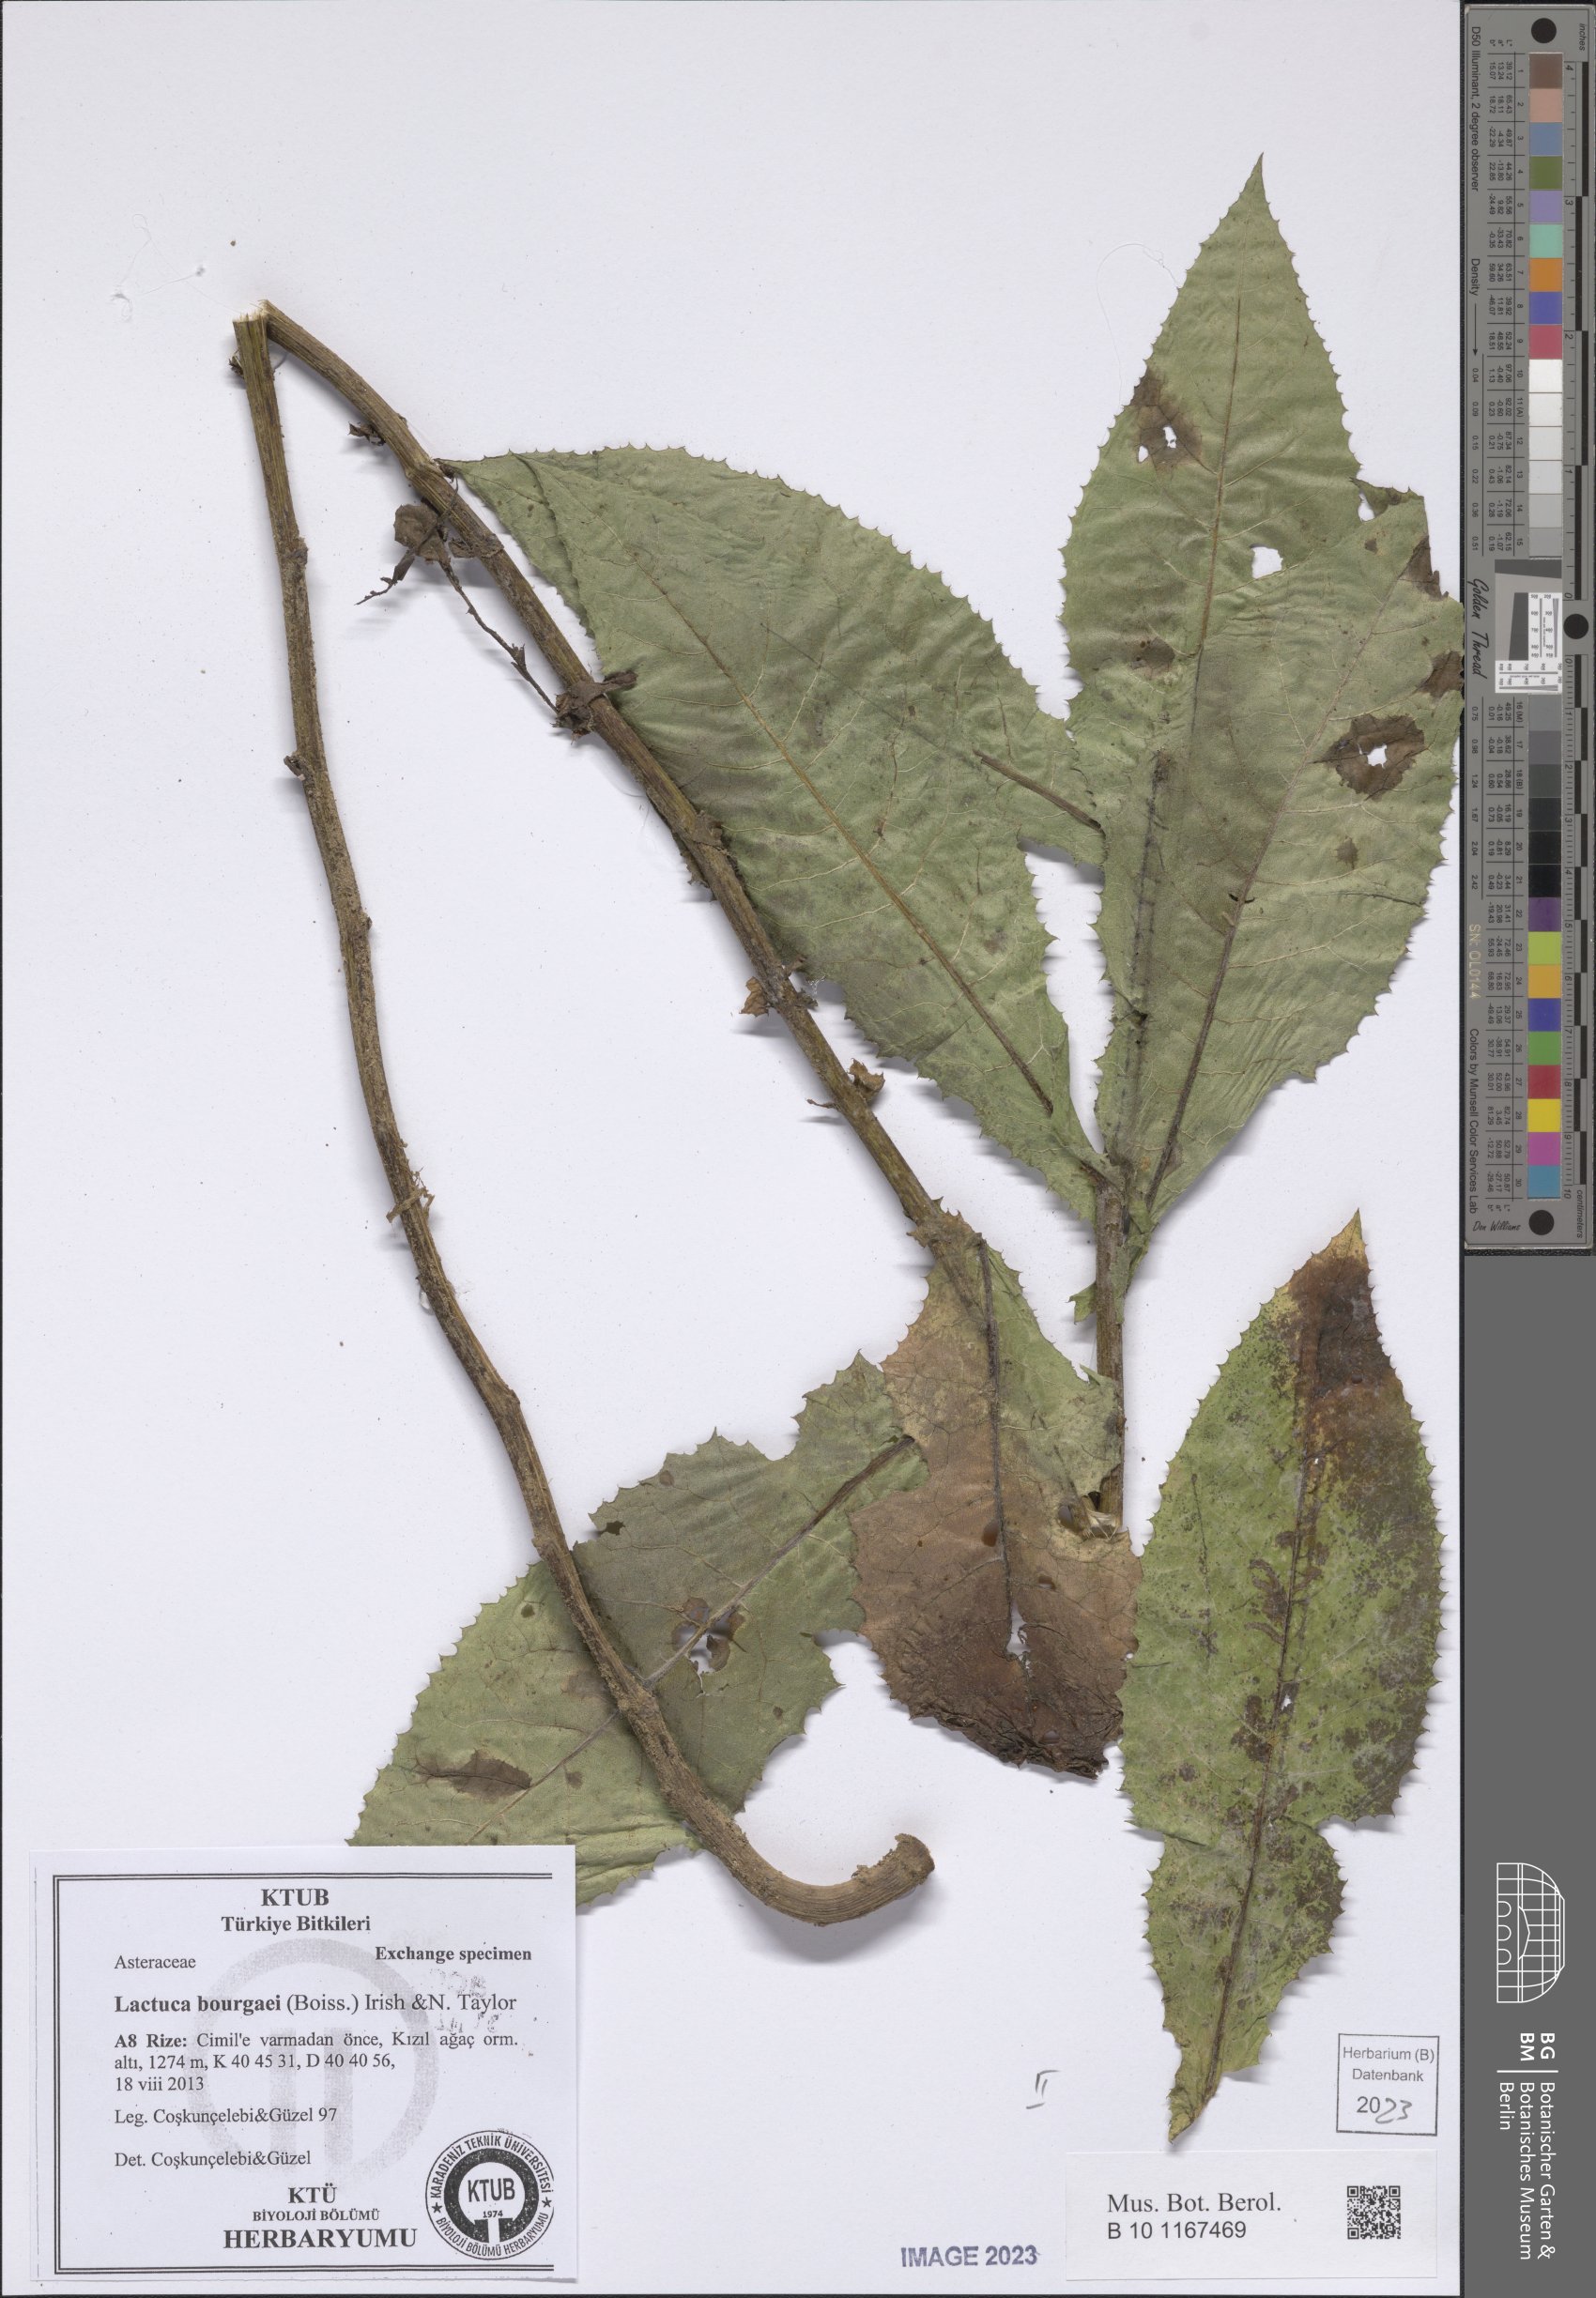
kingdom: Plantae
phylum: Tracheophyta
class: Magnoliopsida
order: Asterales
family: Asteraceae
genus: Lactuca
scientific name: Lactuca bourgaei
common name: Pontic blue-sow-thistle
